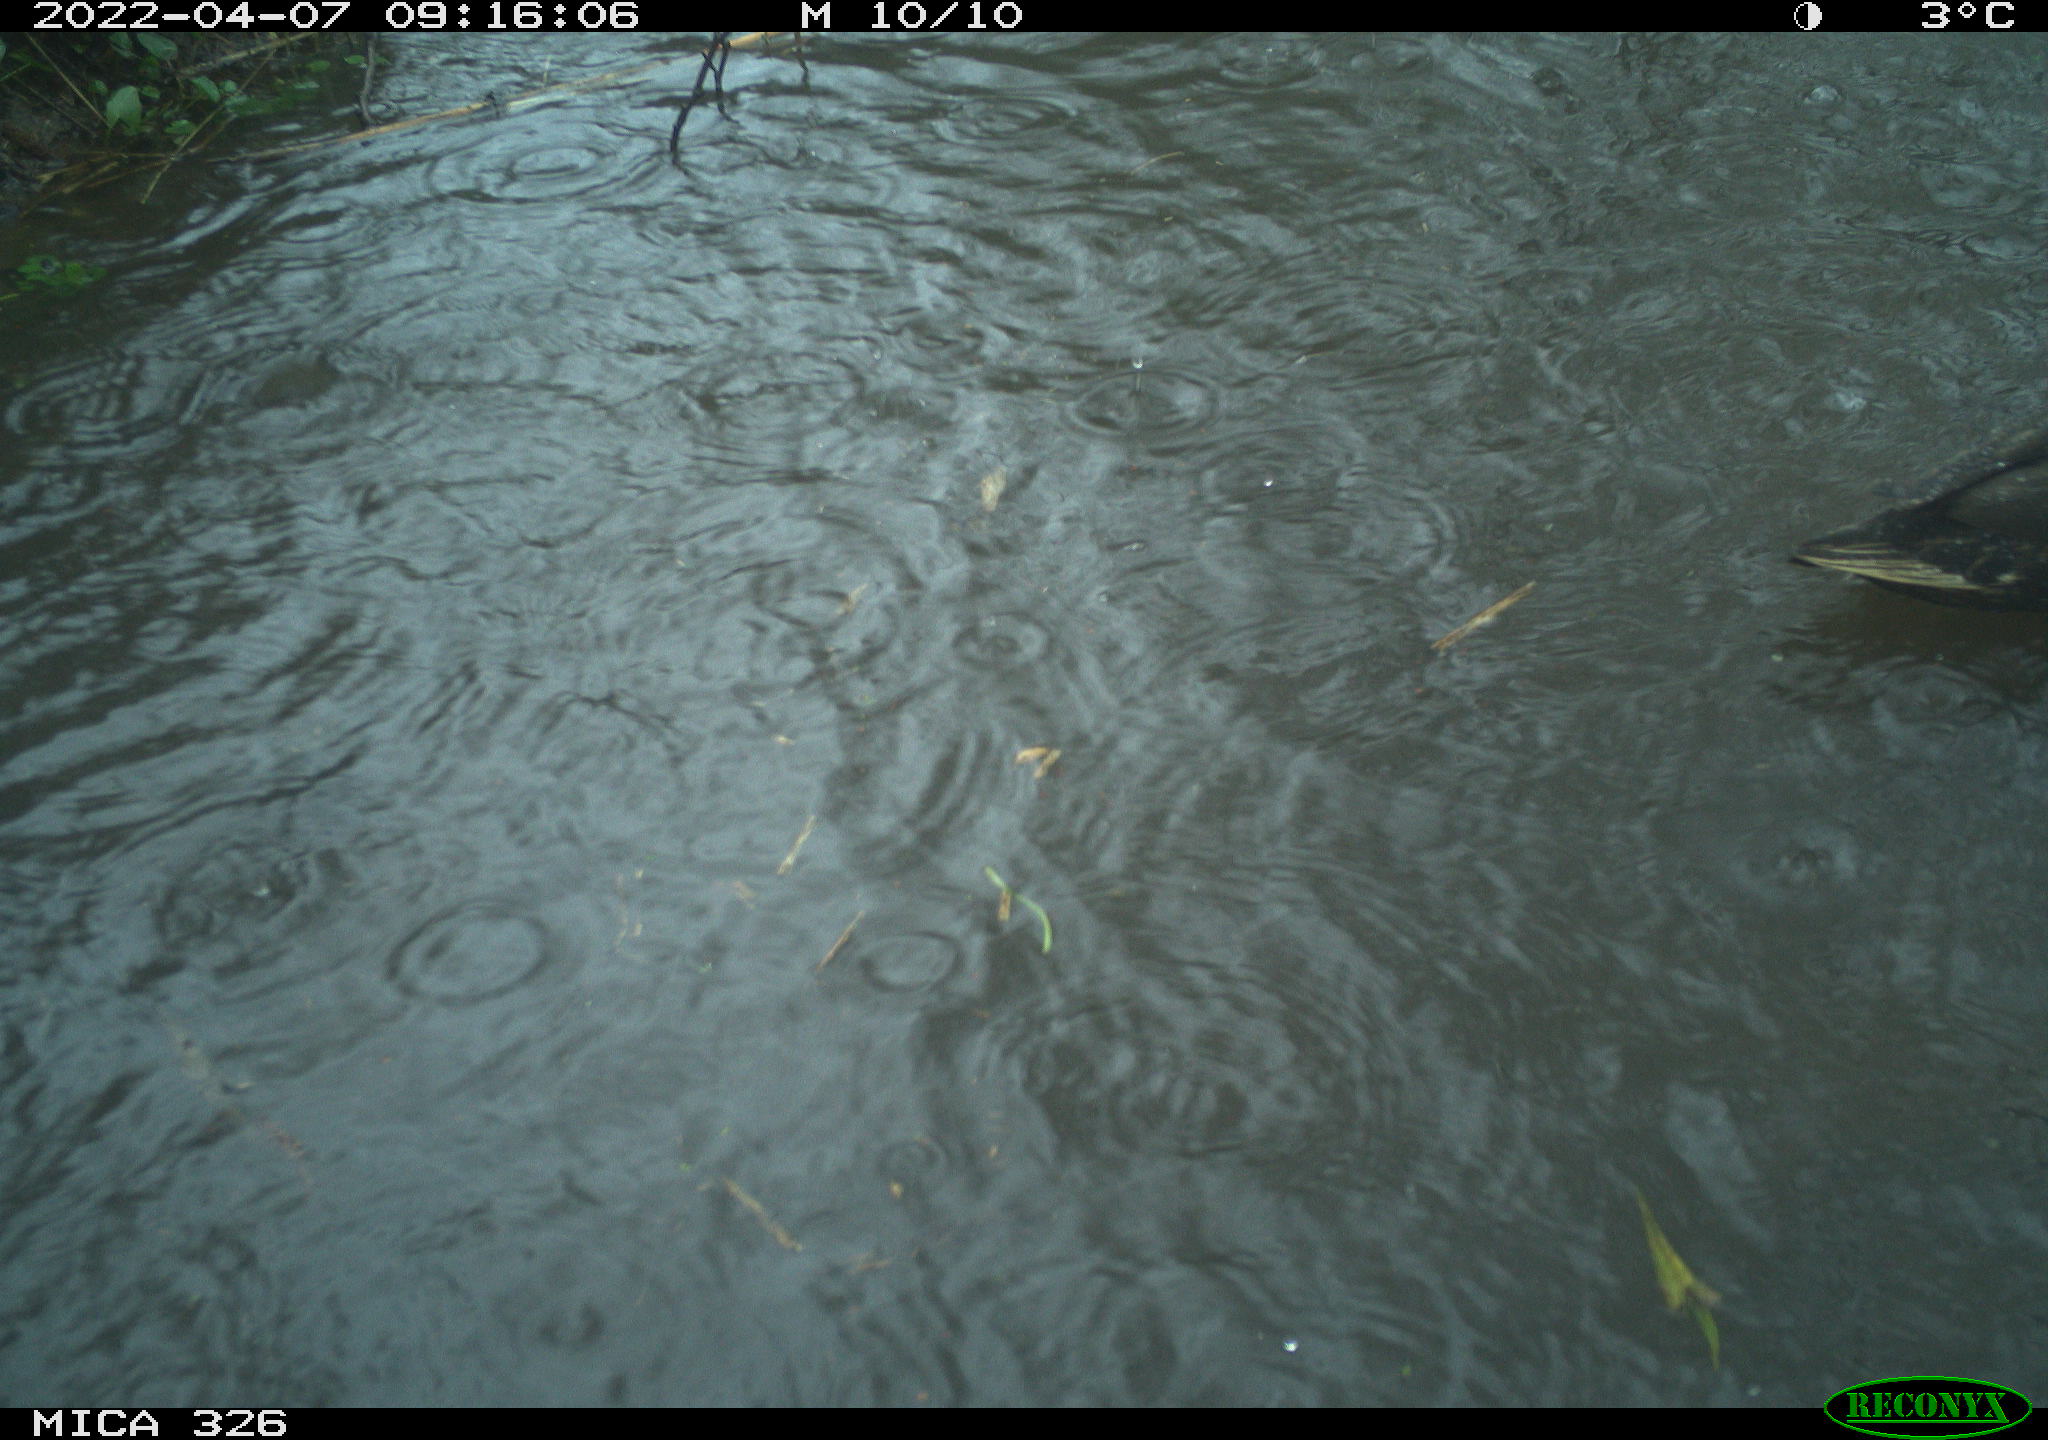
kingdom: Animalia
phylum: Chordata
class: Aves
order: Anseriformes
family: Anatidae
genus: Anas
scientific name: Anas platyrhynchos
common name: Mallard
